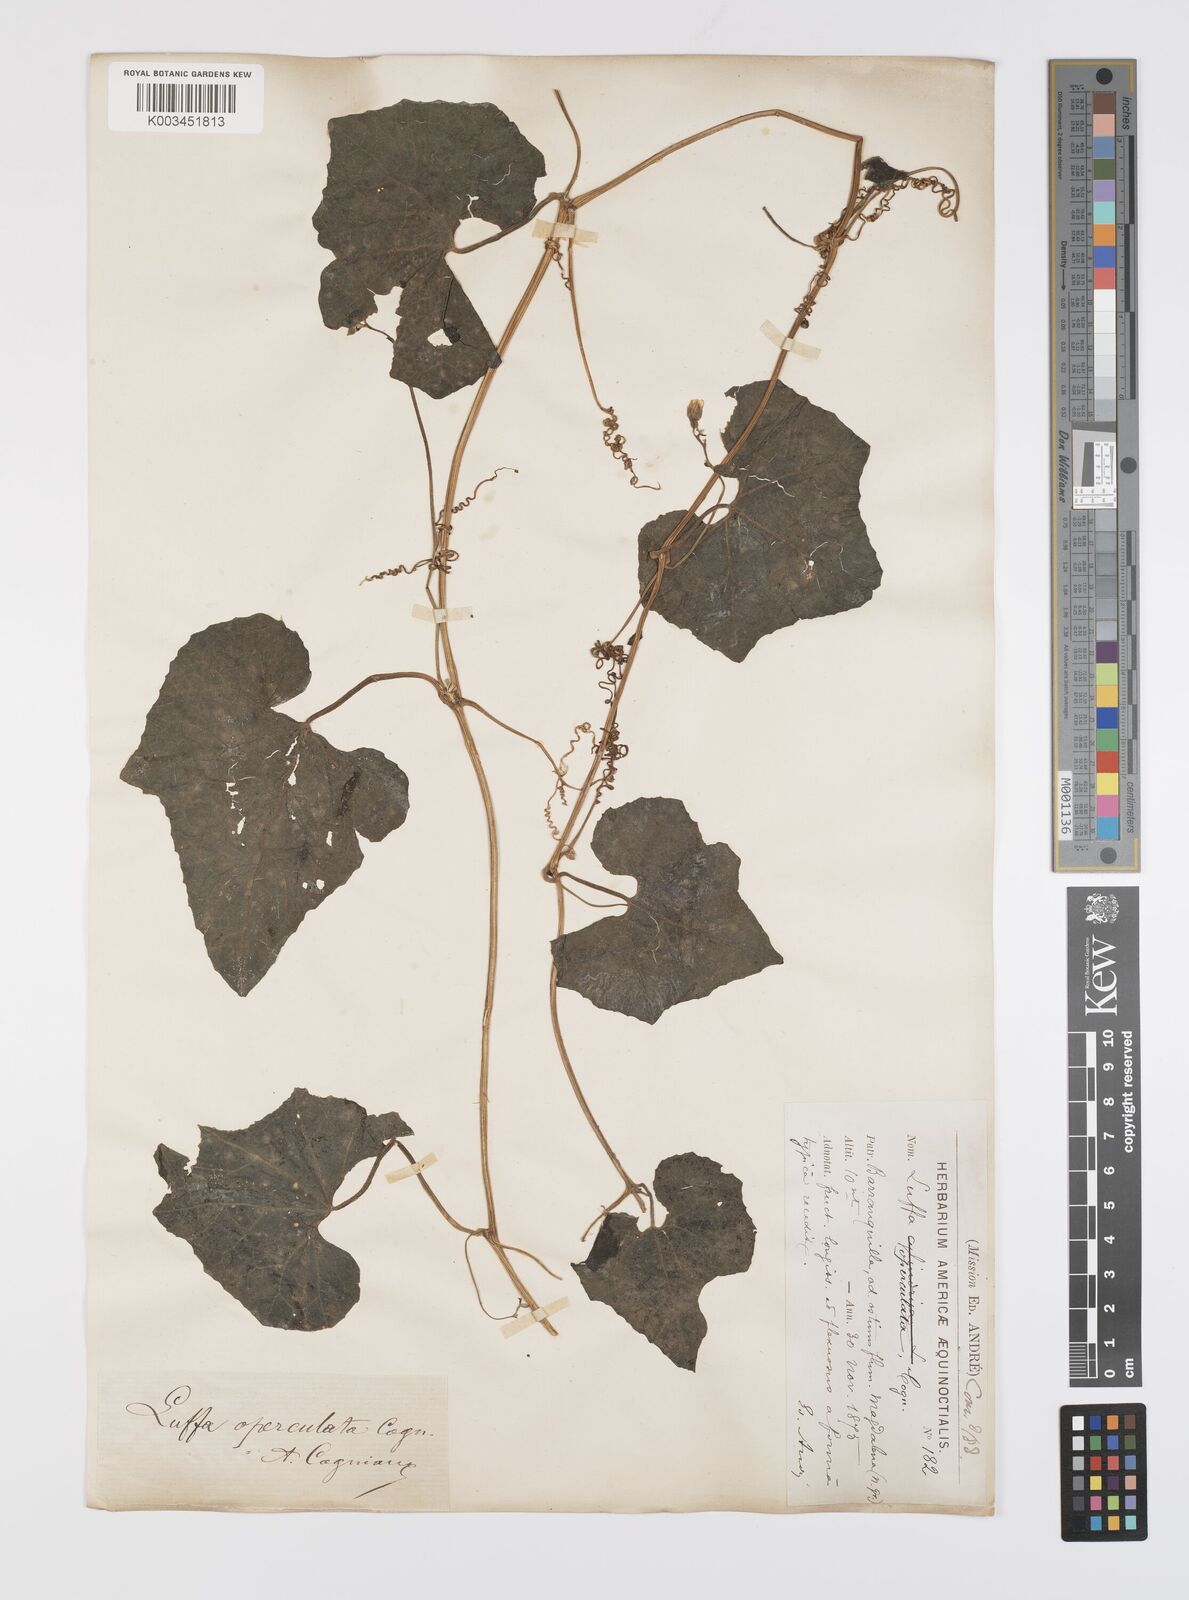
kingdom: Plantae
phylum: Tracheophyta
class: Magnoliopsida
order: Cucurbitales
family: Cucurbitaceae
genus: Luffa
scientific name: Luffa operculata
